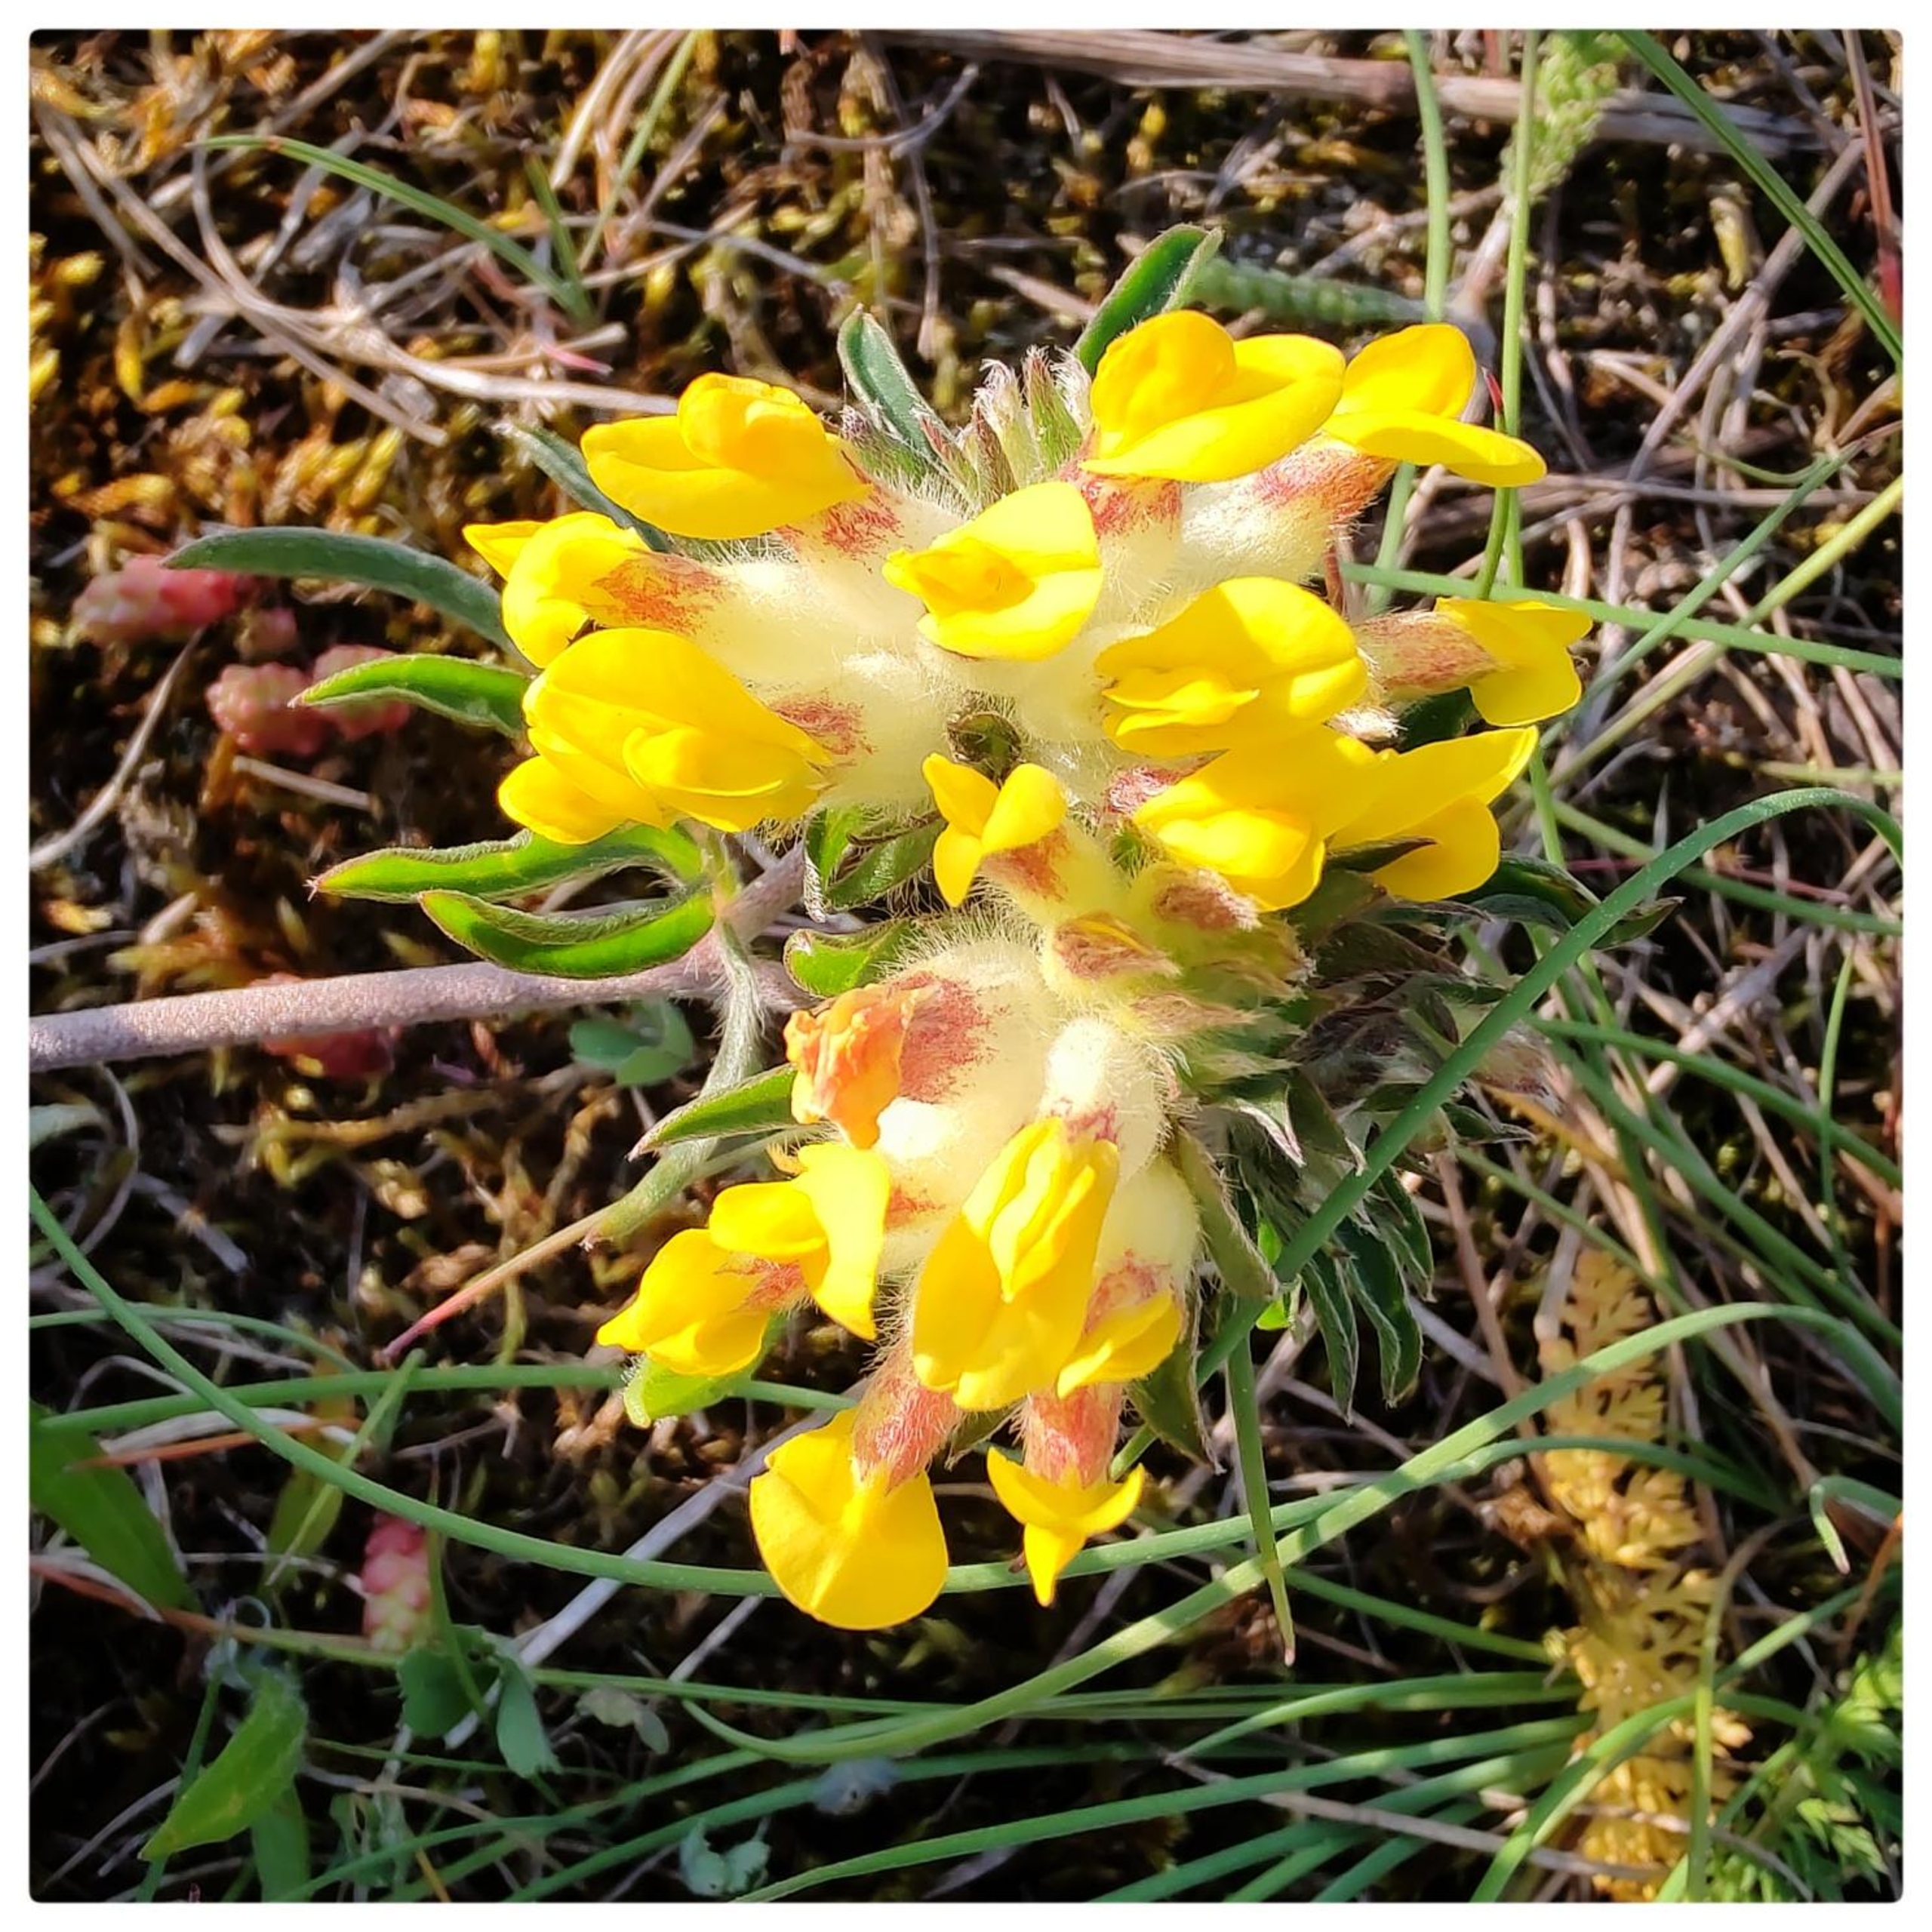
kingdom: Plantae
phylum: Tracheophyta
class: Magnoliopsida
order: Fabales
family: Fabaceae
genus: Anthyllis
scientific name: Anthyllis vulneraria
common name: Rundbælg
